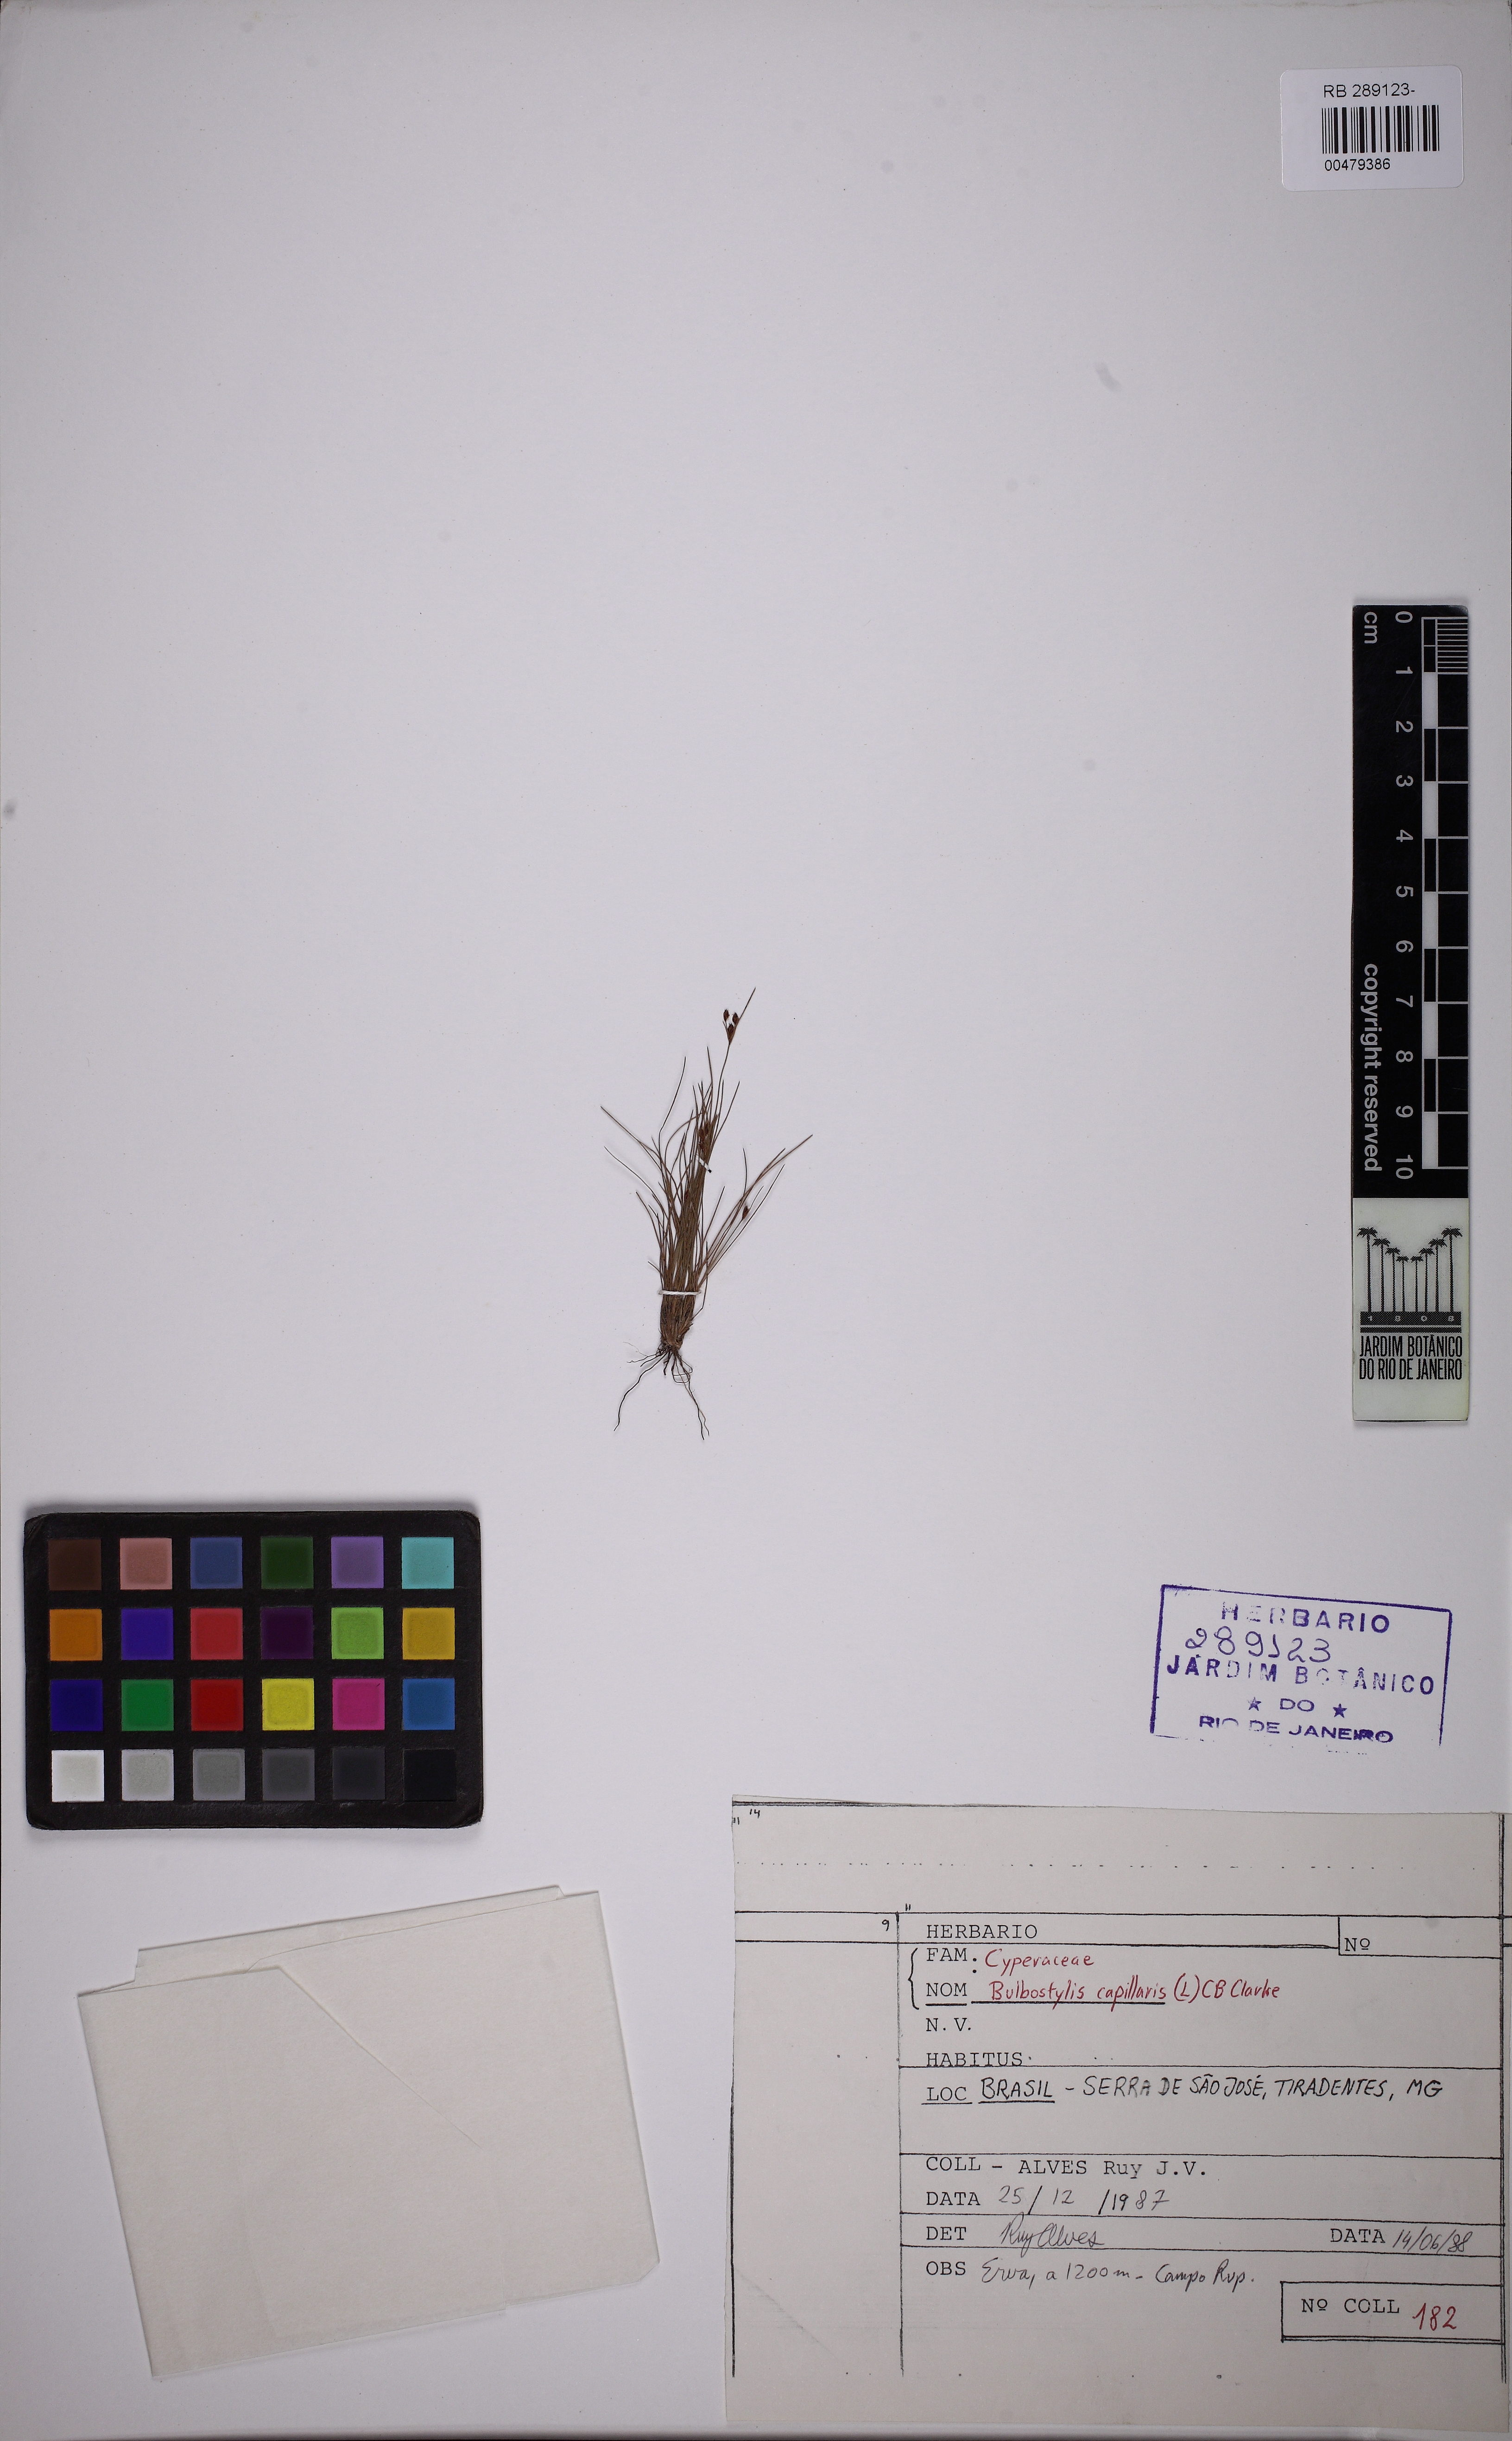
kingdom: Plantae
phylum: Tracheophyta
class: Liliopsida
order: Poales
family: Cyperaceae
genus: Bulbostylis
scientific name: Bulbostylis capillaris
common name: Densetuft hairsedge
